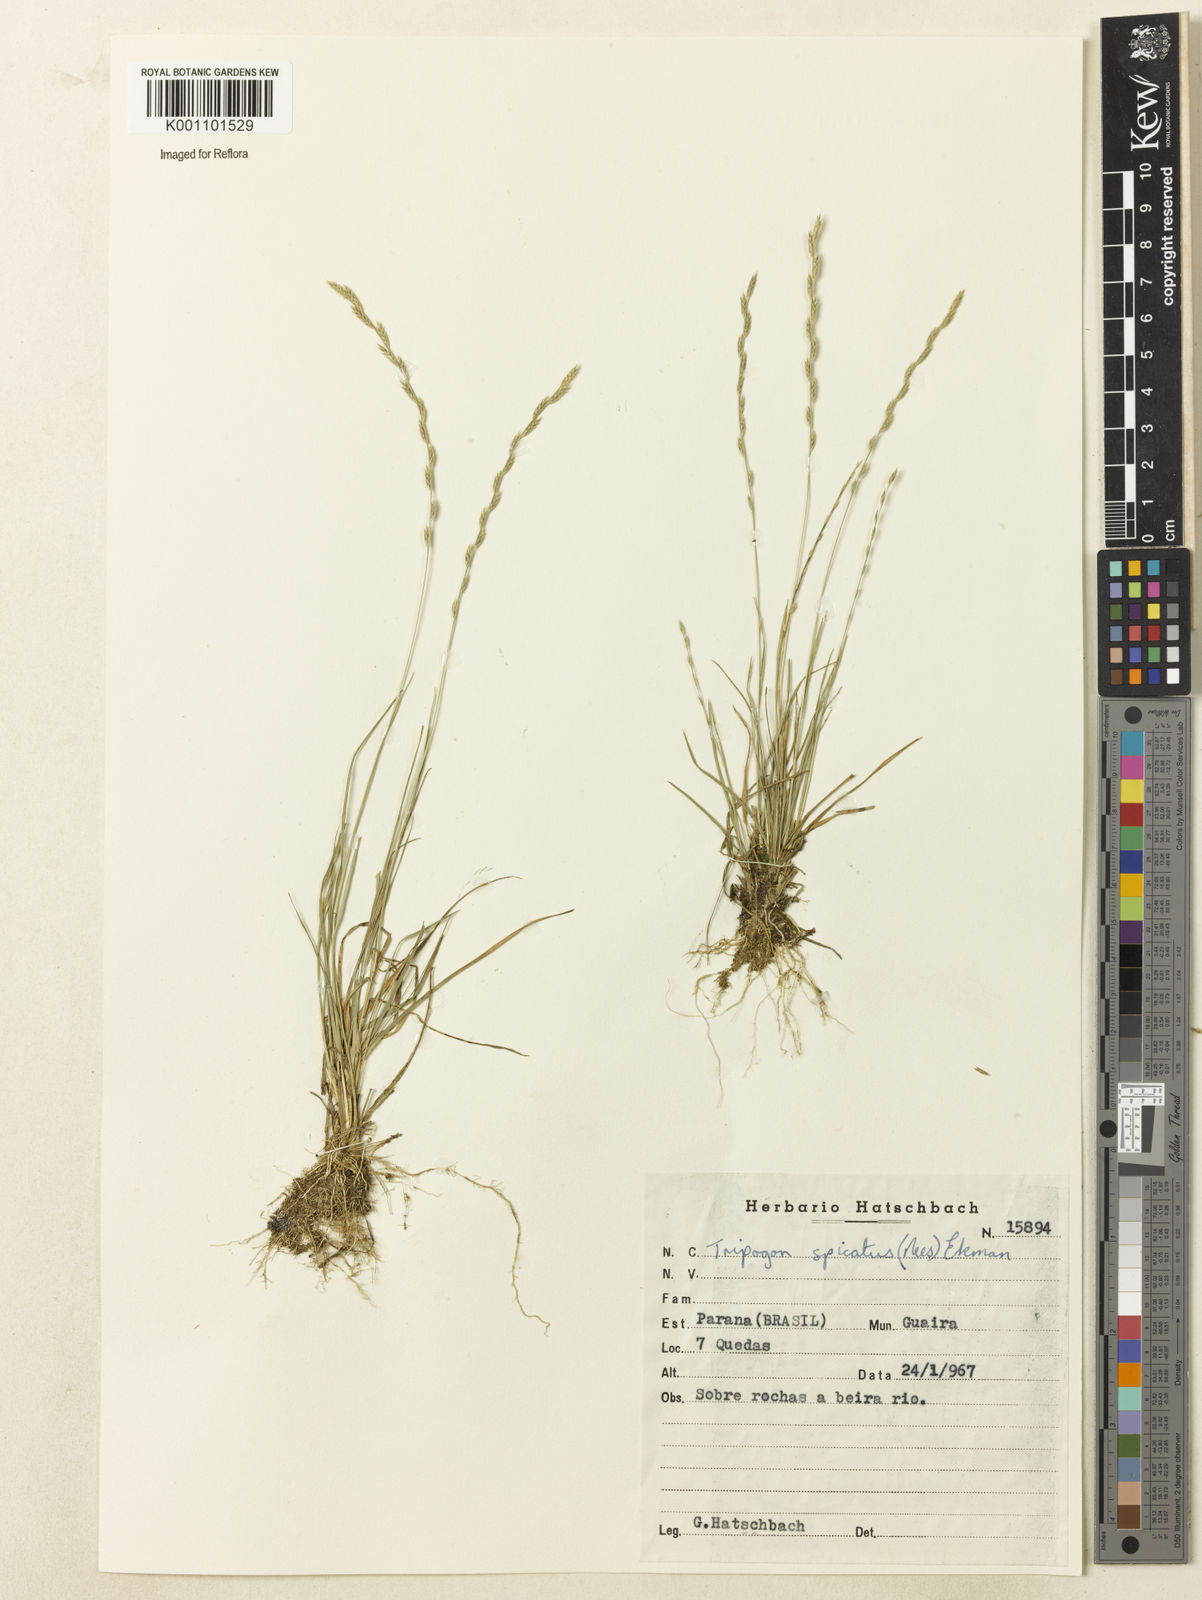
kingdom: Plantae
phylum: Tracheophyta
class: Liliopsida
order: Poales
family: Poaceae
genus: Tripogonella
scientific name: Tripogonella spicata
